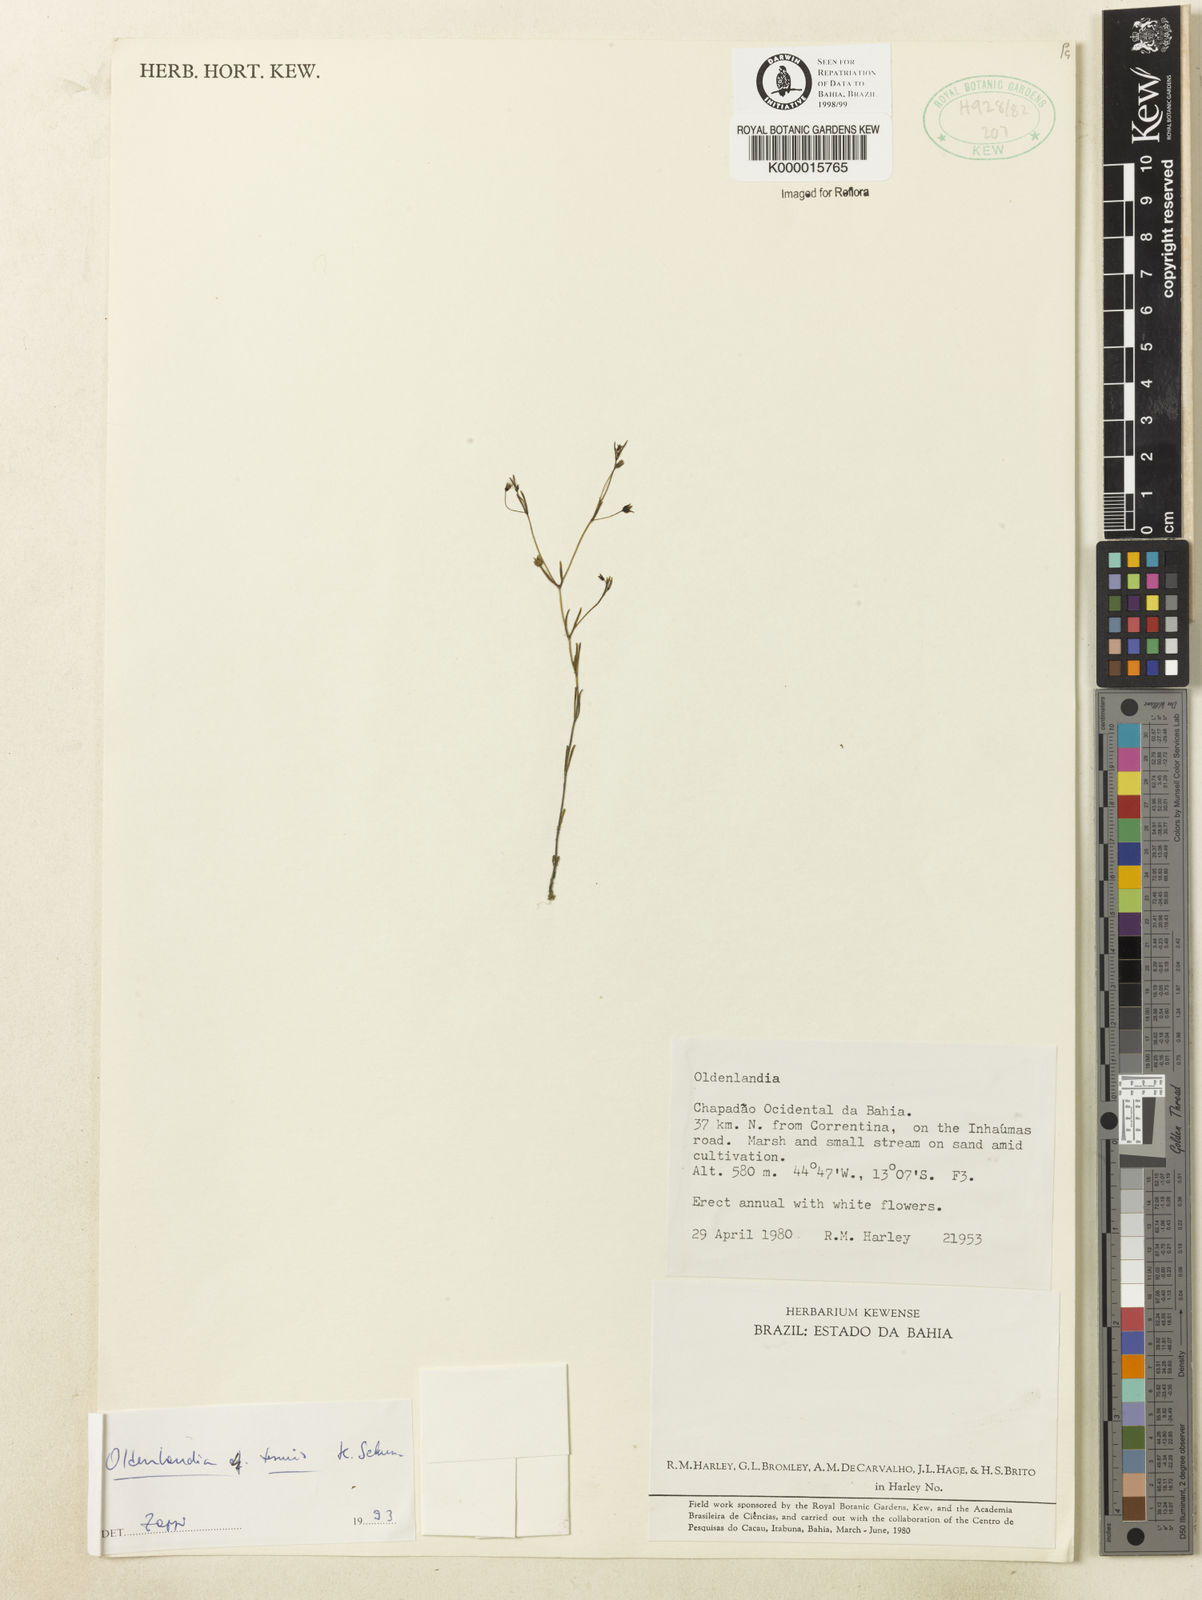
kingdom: Plantae
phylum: Tracheophyta
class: Magnoliopsida
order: Gentianales
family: Rubiaceae
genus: Oldenlandia
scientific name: Oldenlandia tenuis
